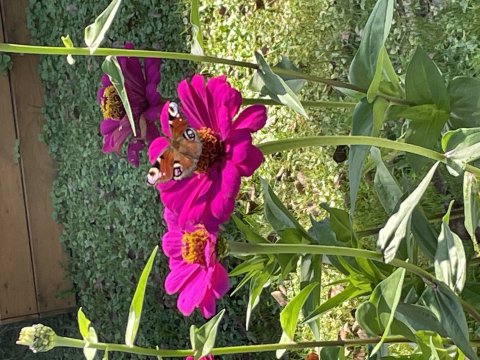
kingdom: Animalia
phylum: Arthropoda
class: Insecta
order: Lepidoptera
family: Nymphalidae
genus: Aglais
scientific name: Aglais io
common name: European Peacock
